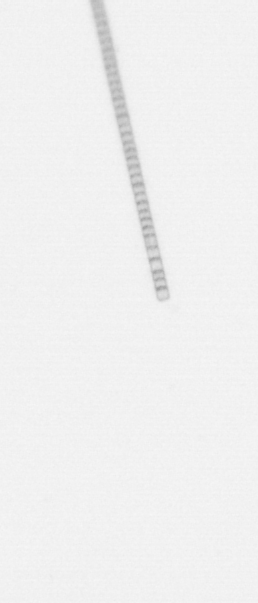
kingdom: Chromista
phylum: Ochrophyta
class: Bacillariophyceae
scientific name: Bacillariophyceae
